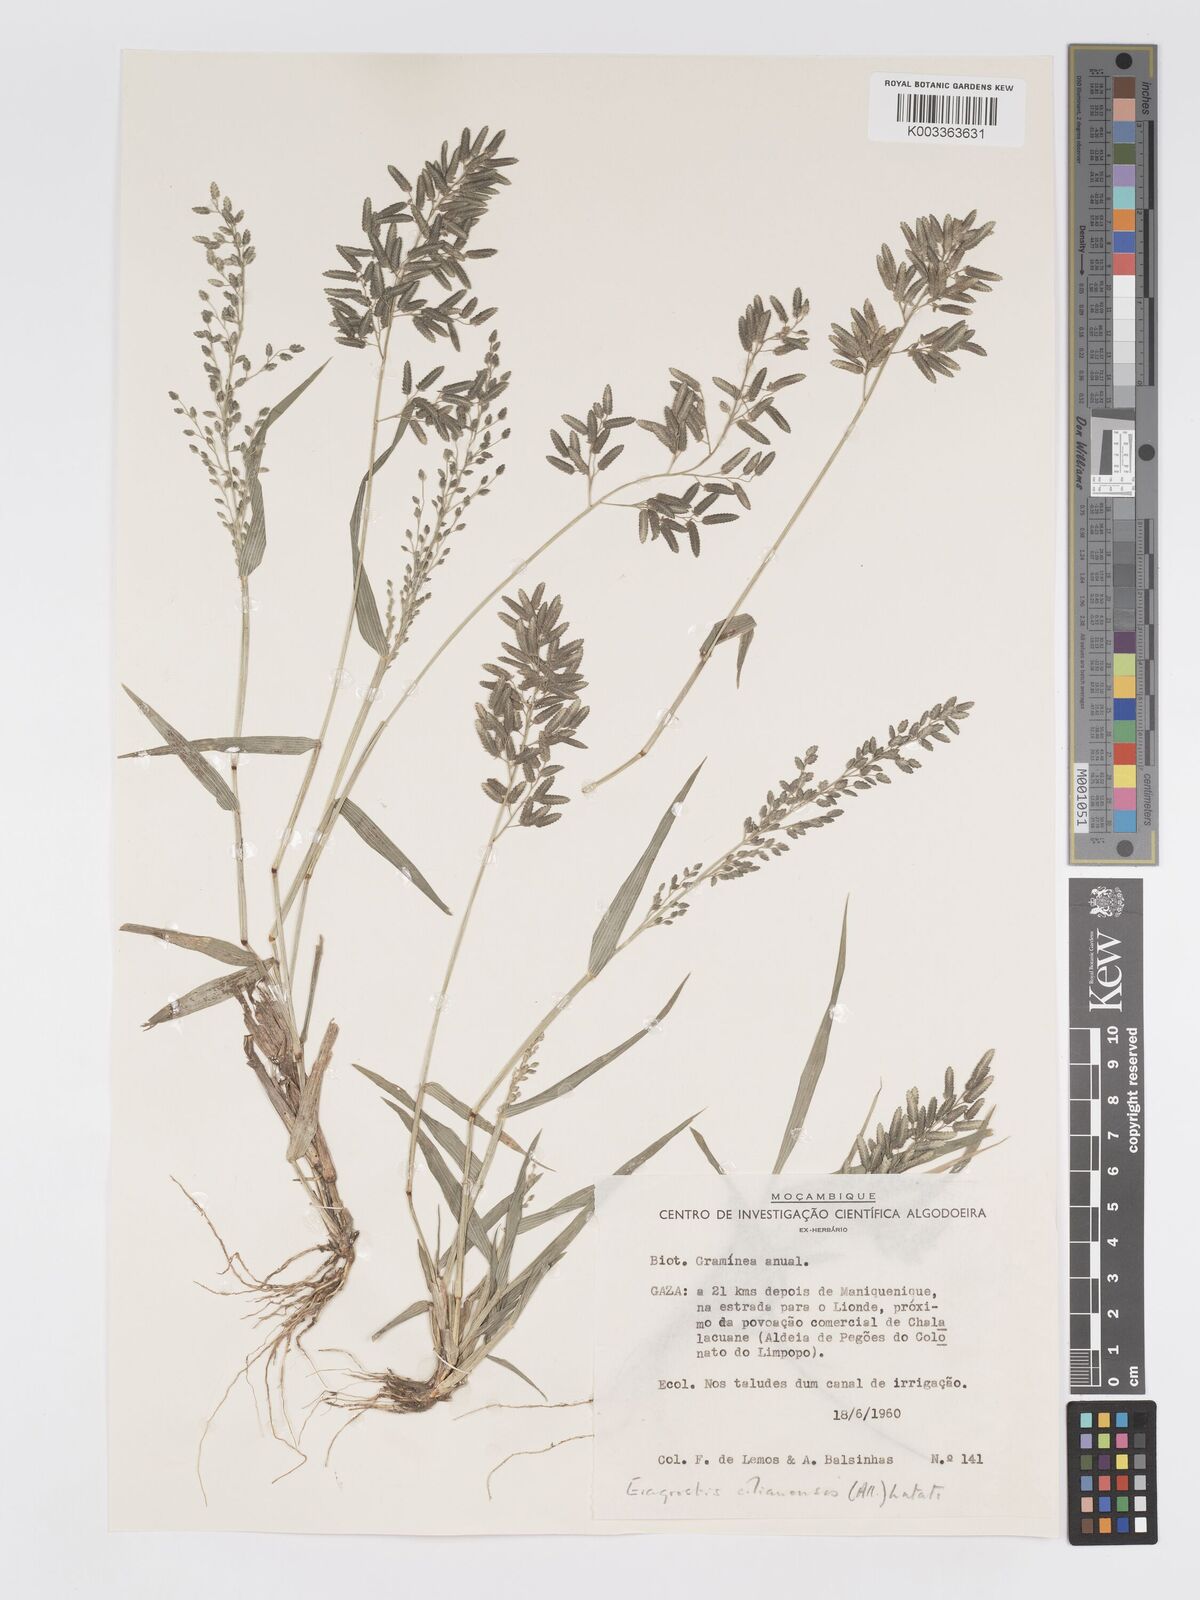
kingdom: Plantae
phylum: Tracheophyta
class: Liliopsida
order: Poales
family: Poaceae
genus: Eragrostis
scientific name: Eragrostis cilianensis
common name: Stinkgrass
